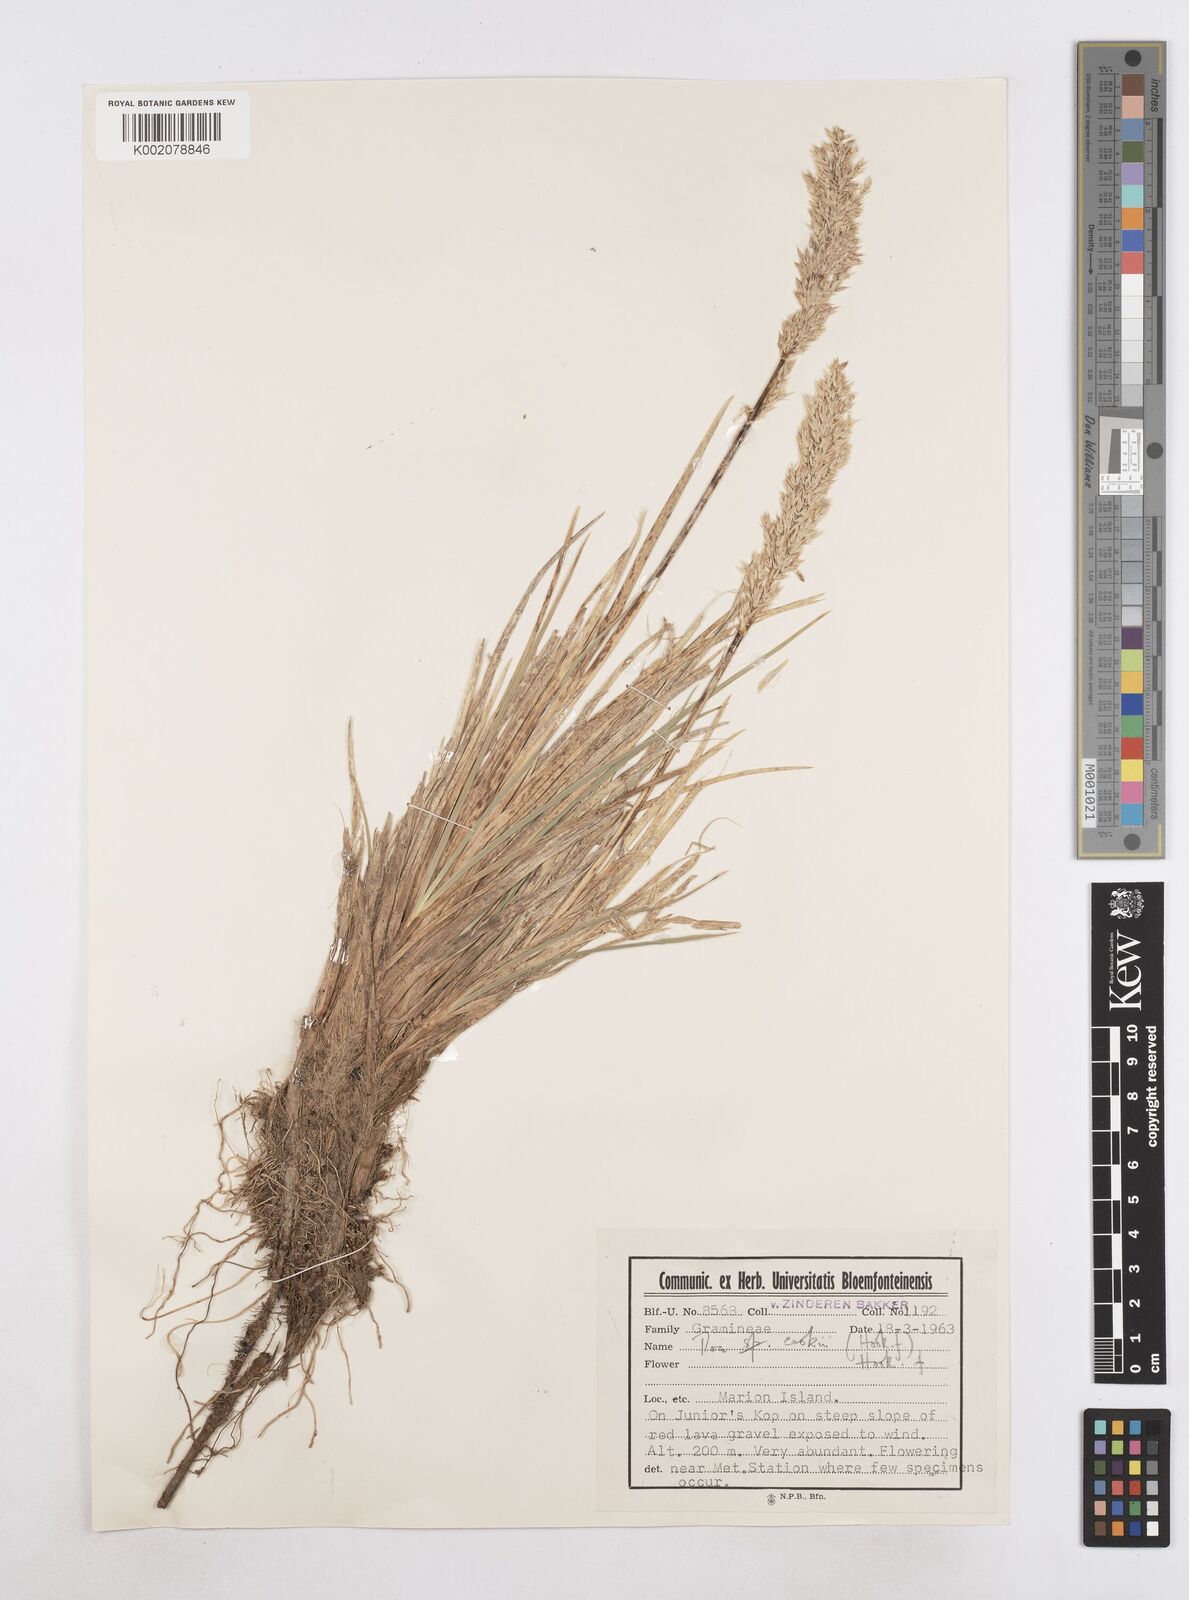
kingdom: Plantae
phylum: Tracheophyta
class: Liliopsida
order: Poales
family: Poaceae
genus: Poa
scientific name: Poa cookii
